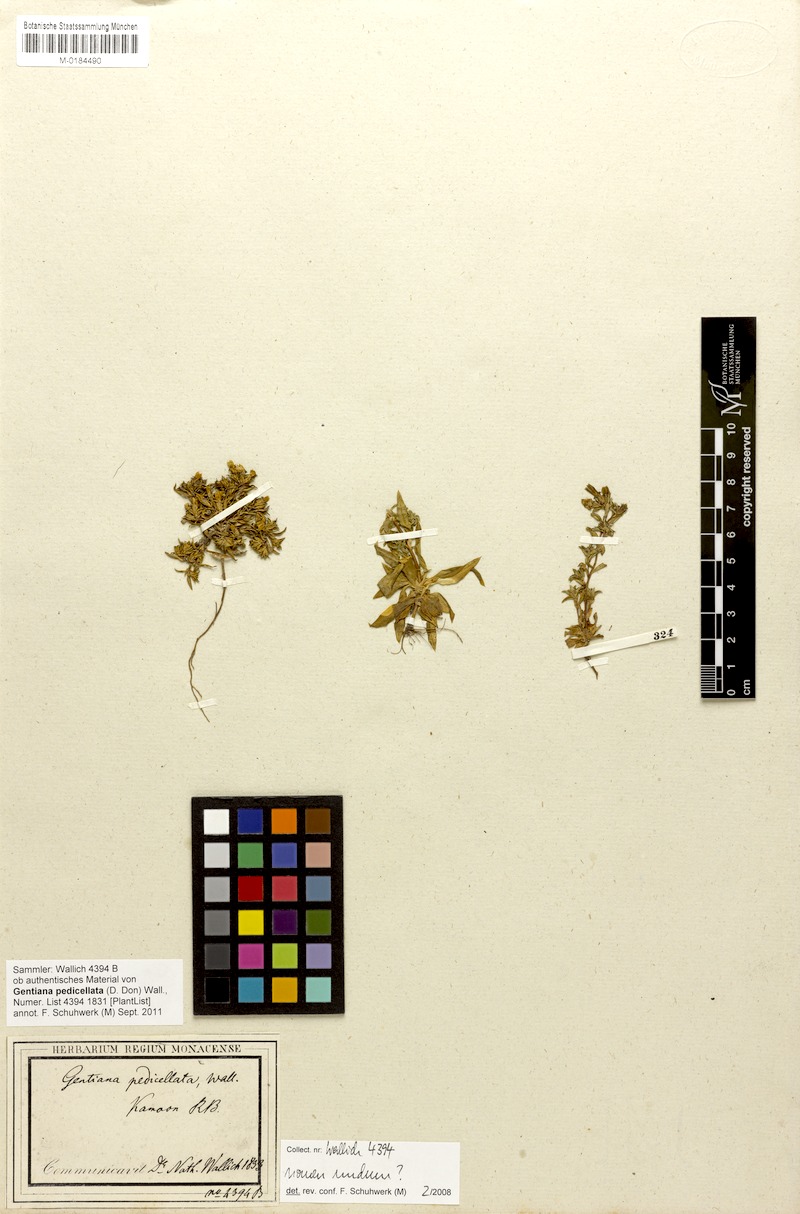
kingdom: Plantae
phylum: Tracheophyta
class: Magnoliopsida
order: Gentianales
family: Gentianaceae
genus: Gentiana
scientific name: Gentiana pedicellata
